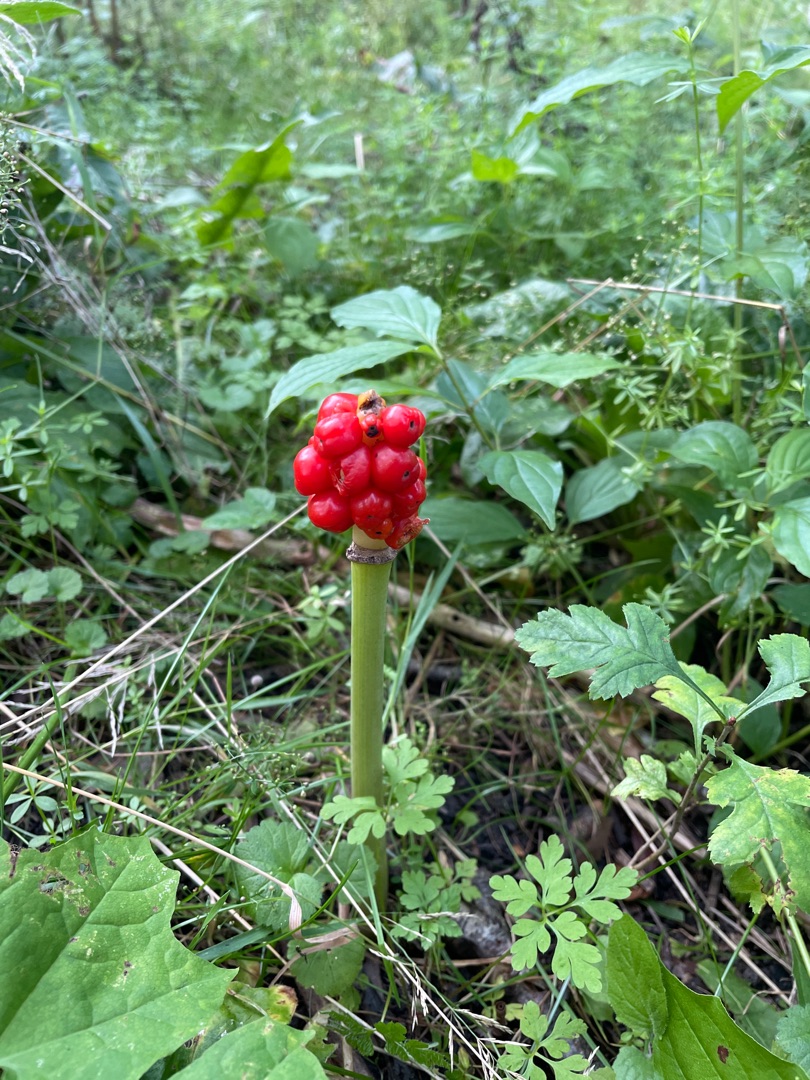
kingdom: Plantae
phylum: Tracheophyta
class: Liliopsida
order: Alismatales
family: Araceae
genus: Arum
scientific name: Arum
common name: Arumslægten
